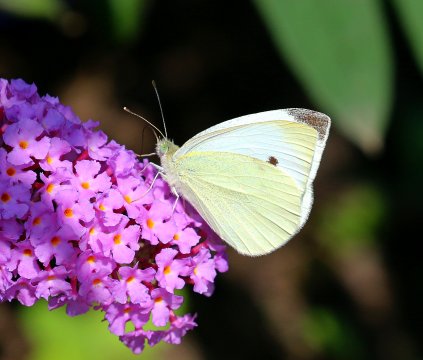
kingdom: Animalia
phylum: Arthropoda
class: Insecta
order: Lepidoptera
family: Pieridae
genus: Pieris
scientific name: Pieris rapae
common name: Cabbage White
